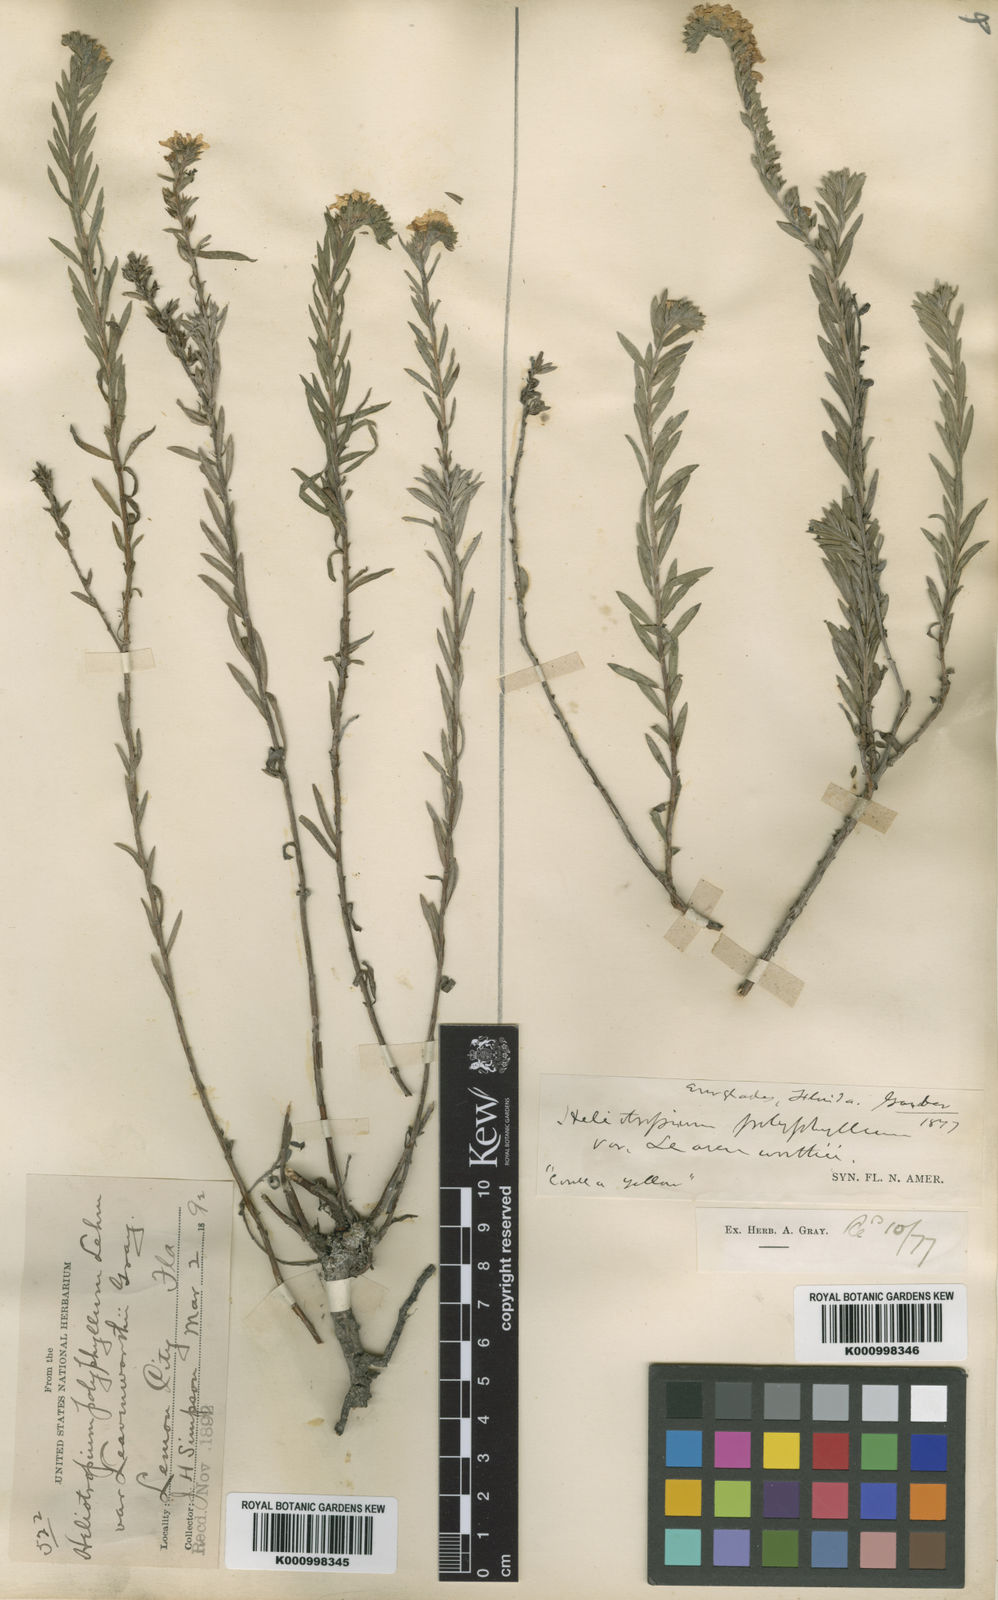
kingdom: Plantae
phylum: Tracheophyta
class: Magnoliopsida
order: Boraginales
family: Heliotropiaceae
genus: Euploca
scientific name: Euploca polyphylla
